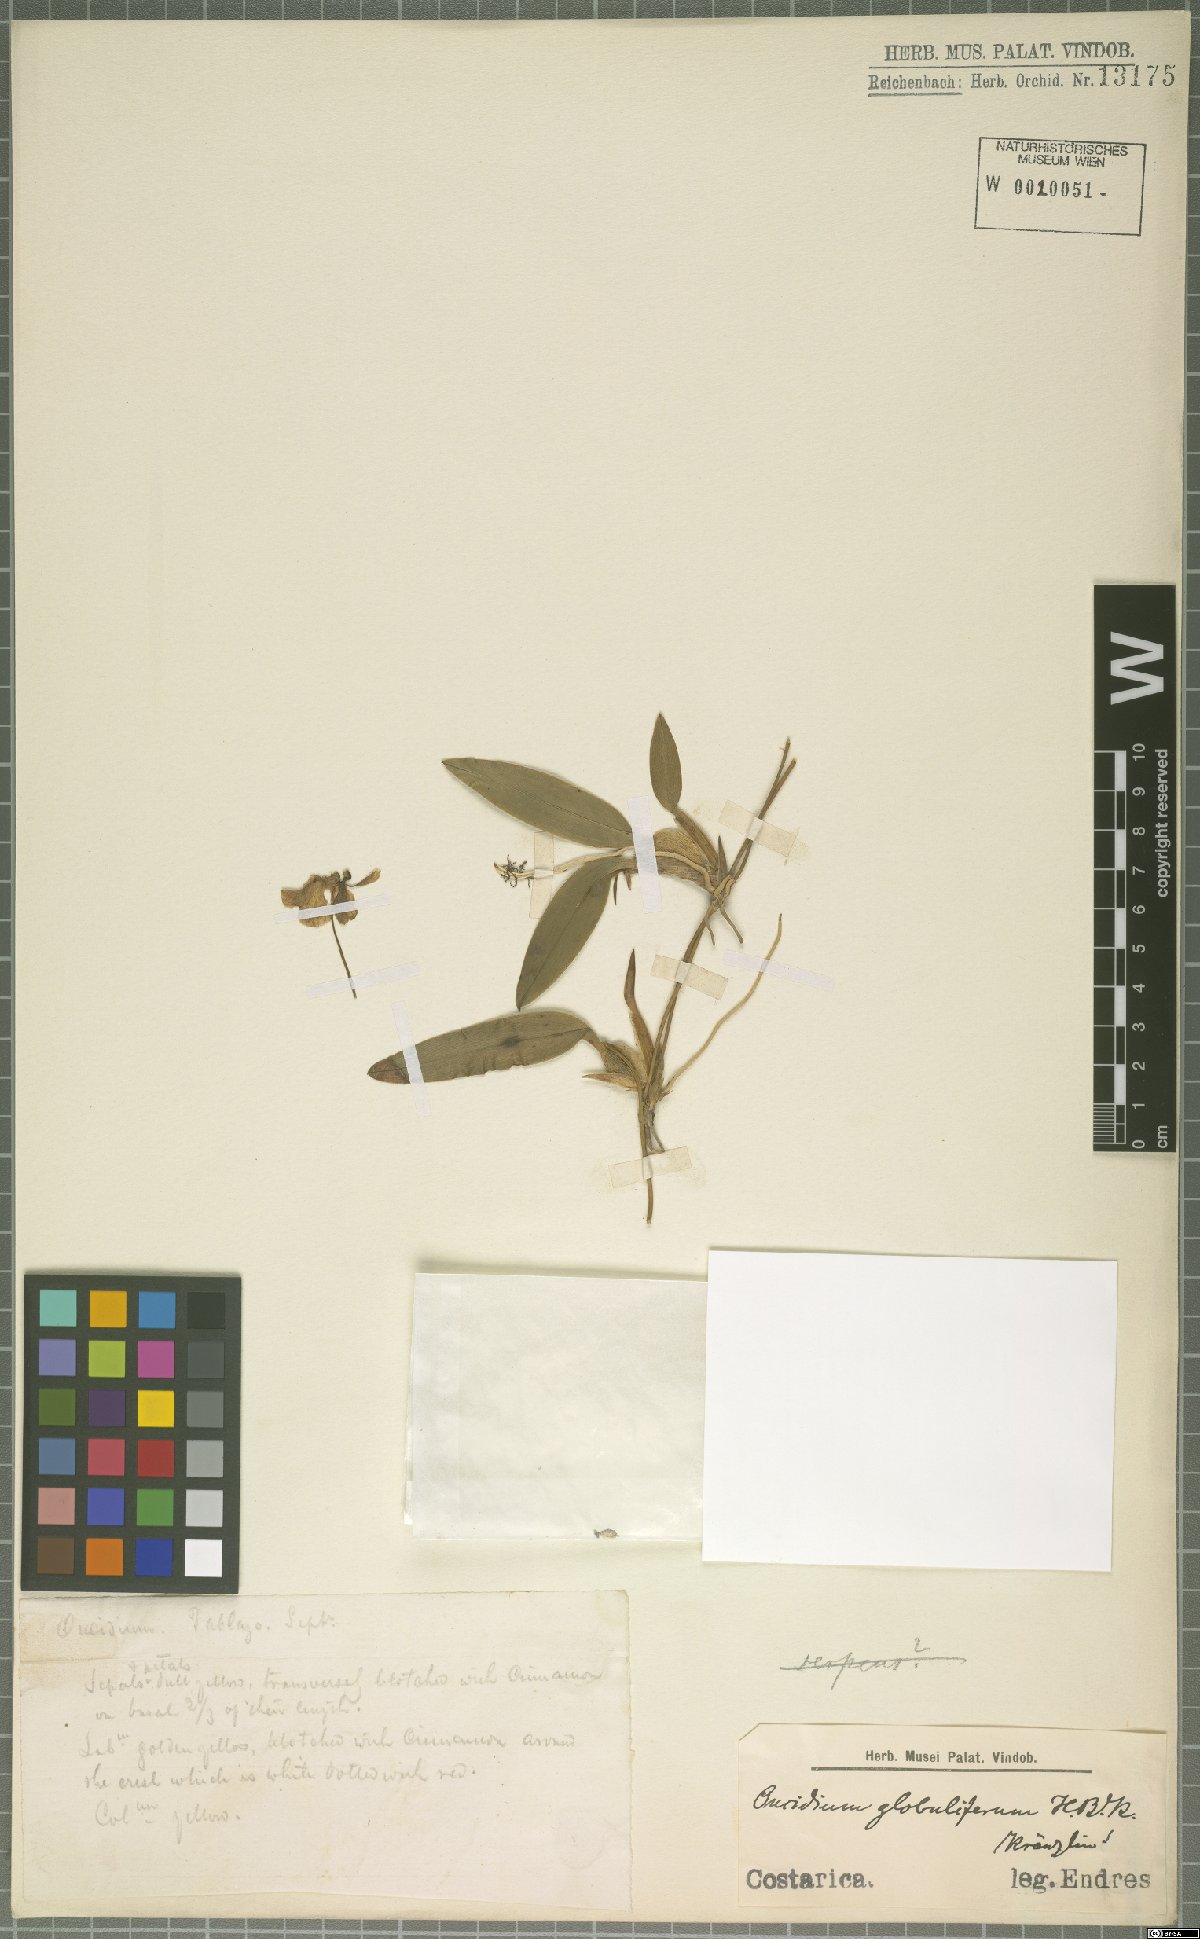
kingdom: Plantae
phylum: Tracheophyta
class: Liliopsida
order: Asparagales
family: Orchidaceae
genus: Otoglossum
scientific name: Otoglossum globuliferum
